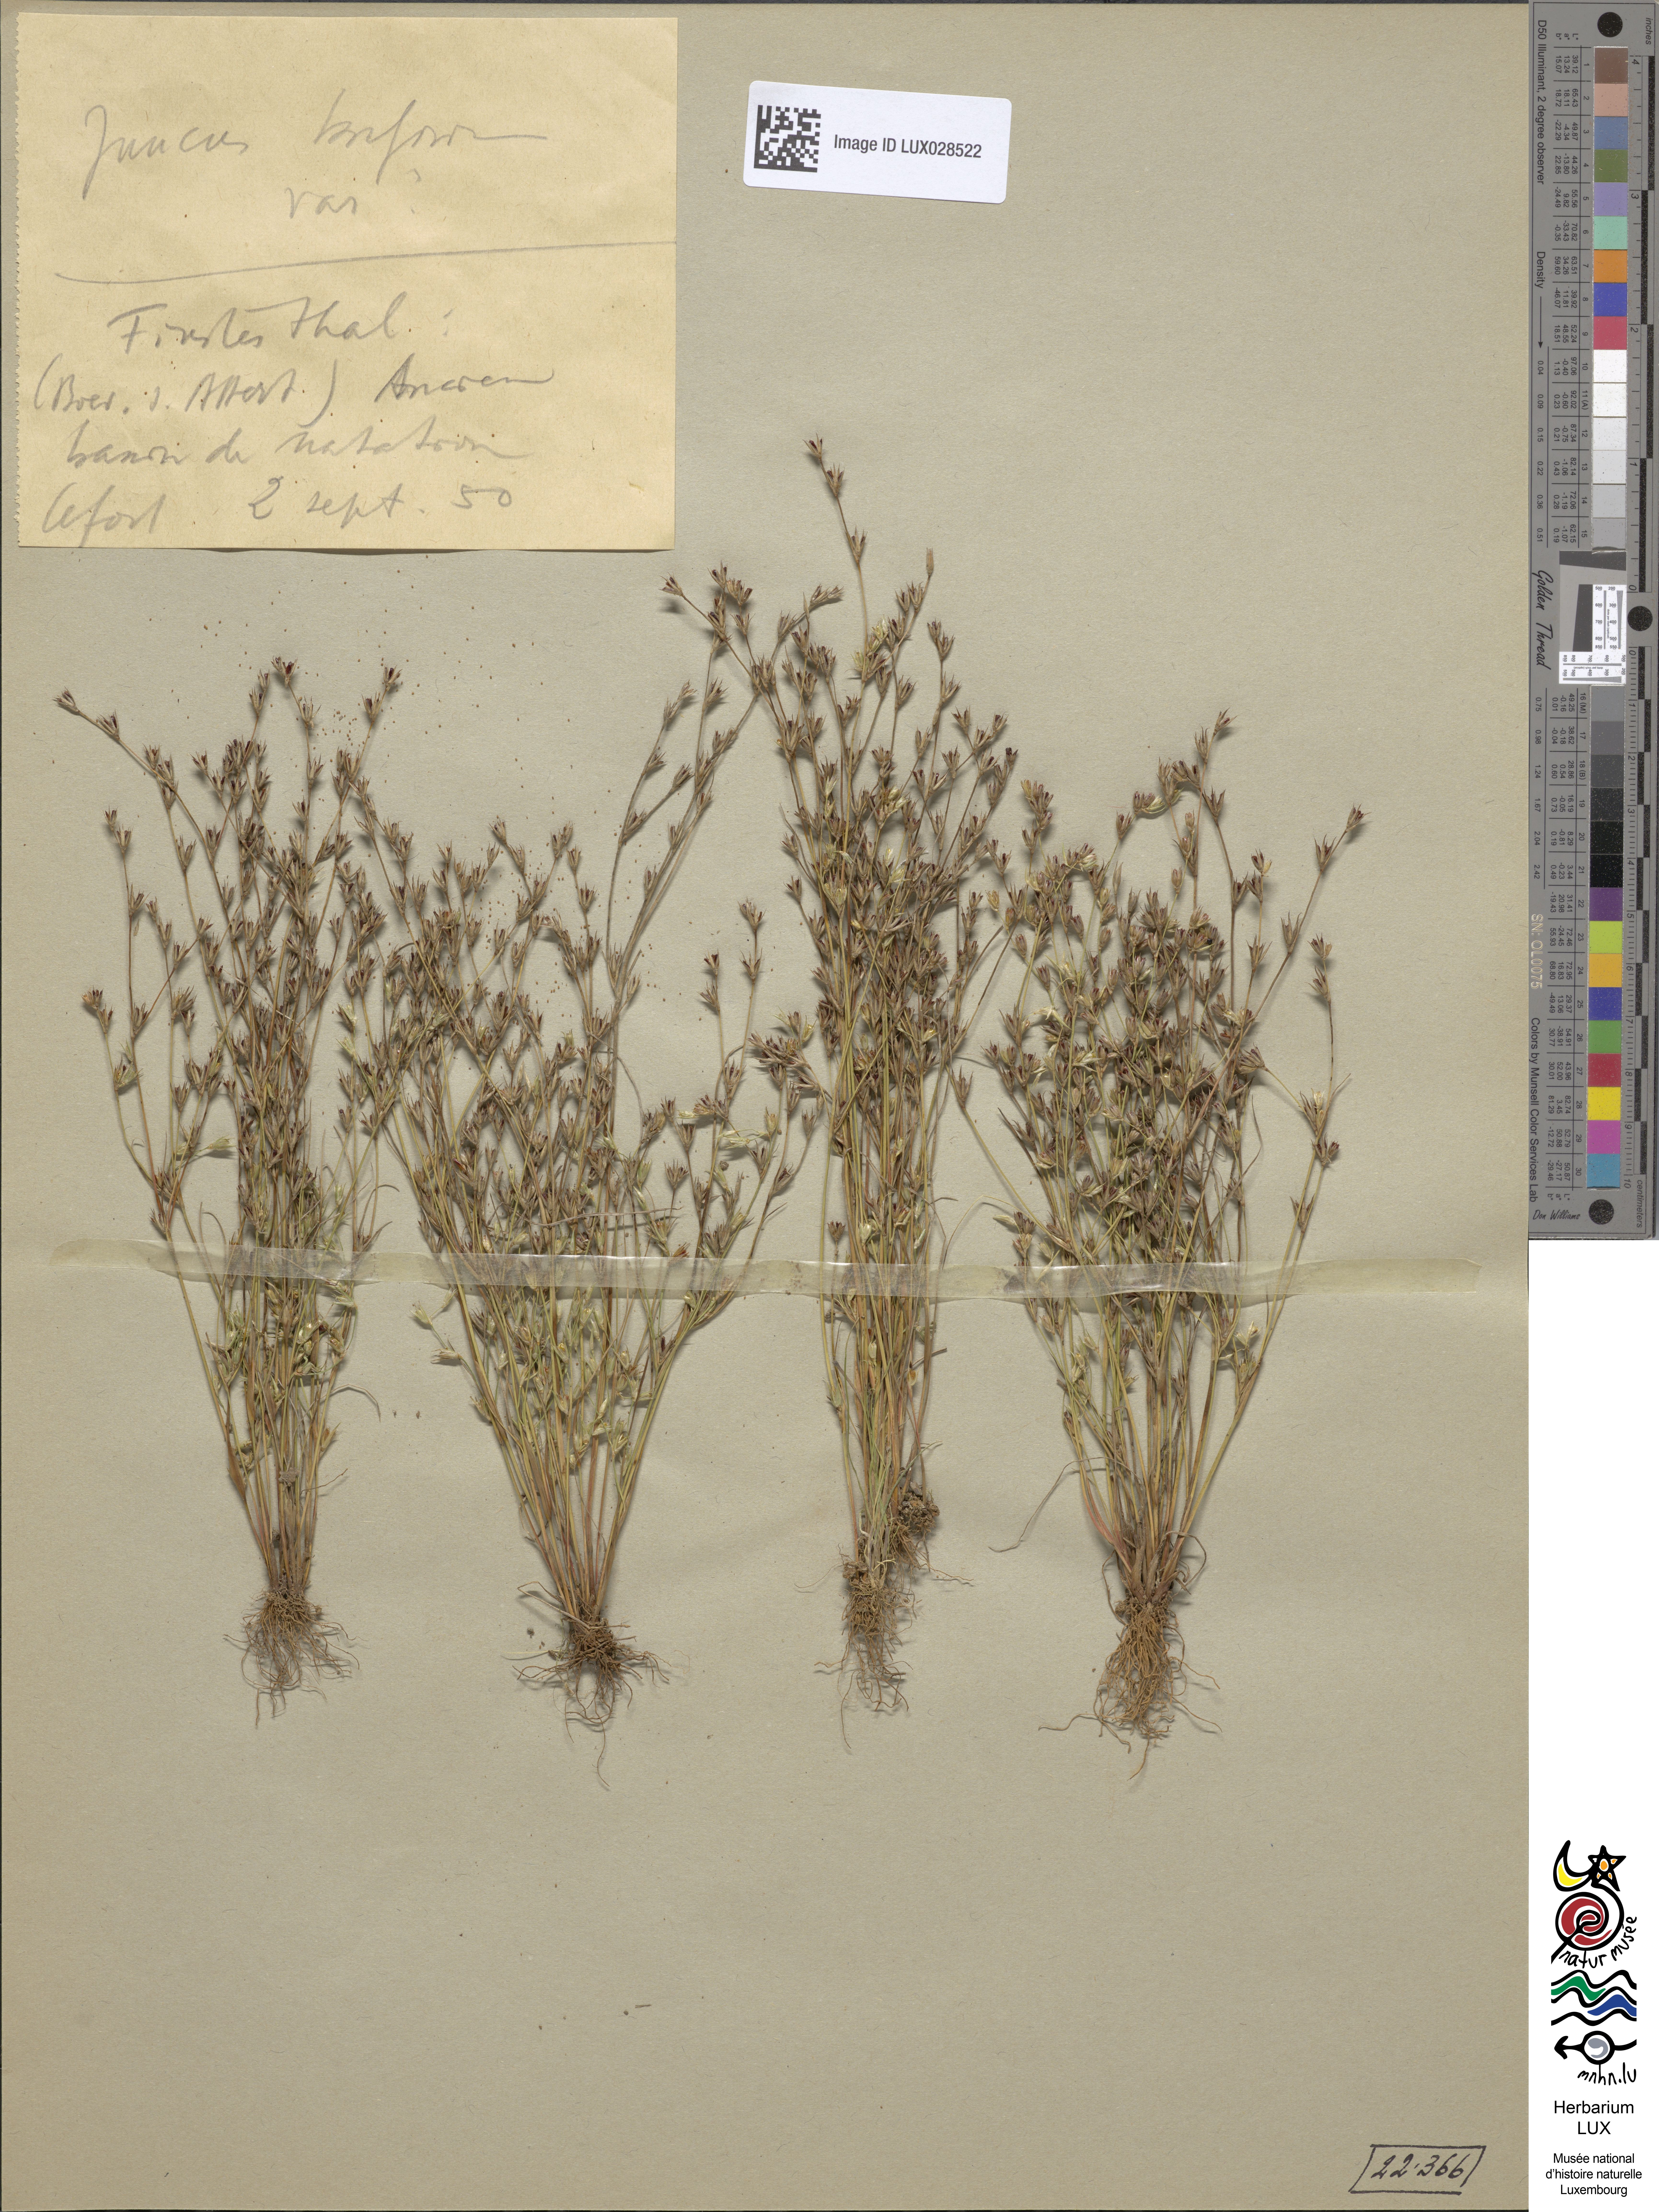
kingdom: Plantae
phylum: Tracheophyta
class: Liliopsida
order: Poales
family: Juncaceae
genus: Juncus
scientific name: Juncus bufonius
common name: Toad rush
